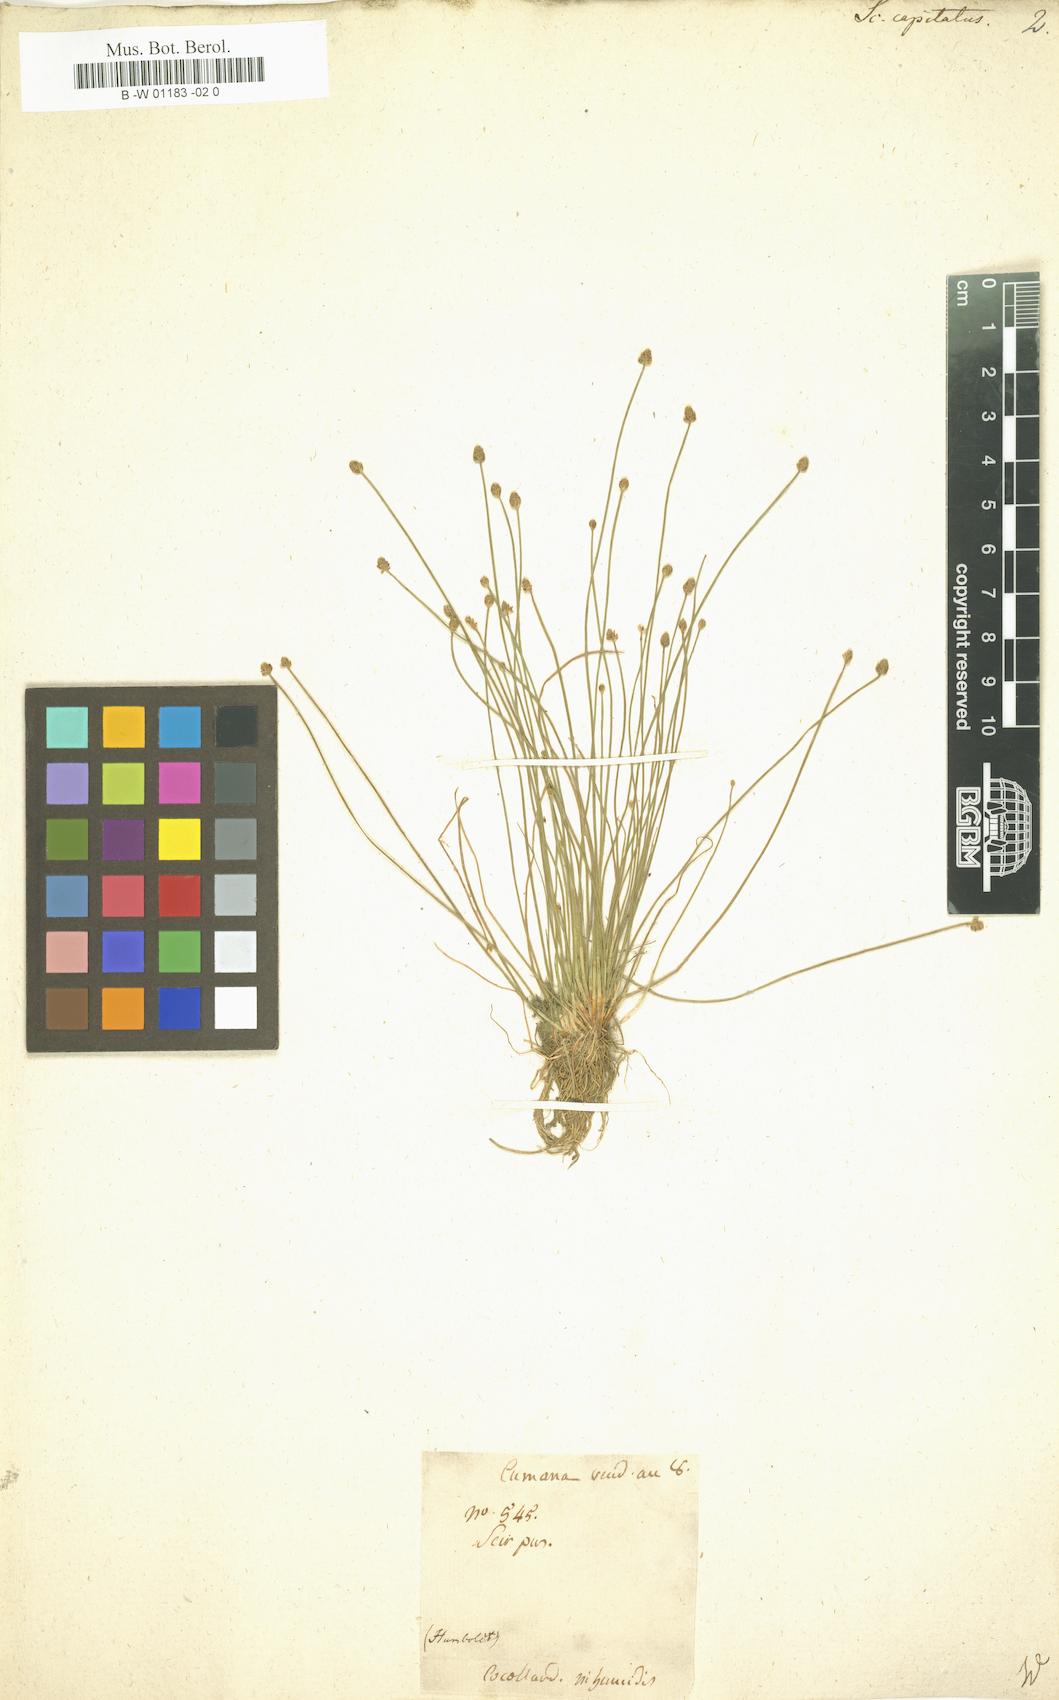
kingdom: Plantae
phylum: Tracheophyta
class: Liliopsida
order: Poales
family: Cyperaceae
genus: Eleocharis
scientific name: Eleocharis geniculata
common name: Canada spikesedge
